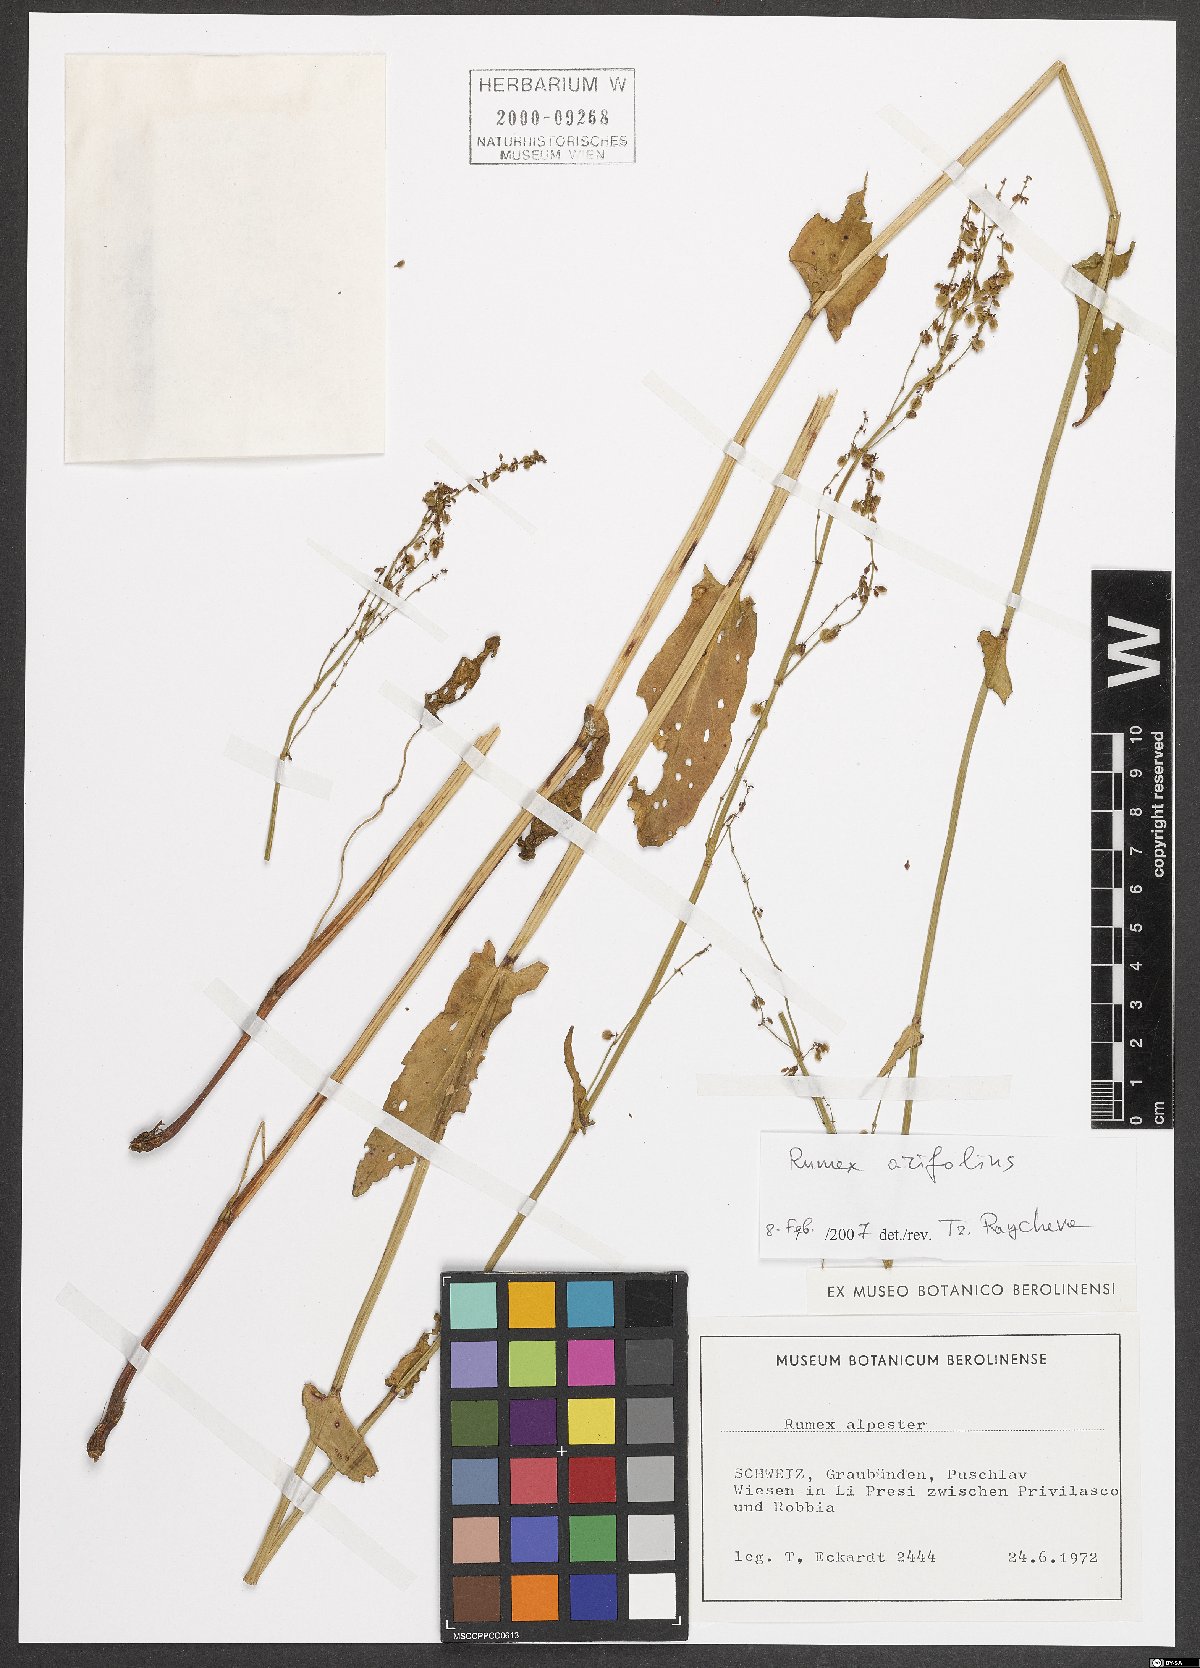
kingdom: Plantae
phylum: Tracheophyta
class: Magnoliopsida
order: Caryophyllales
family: Polygonaceae
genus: Rumex
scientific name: Rumex arifolius
